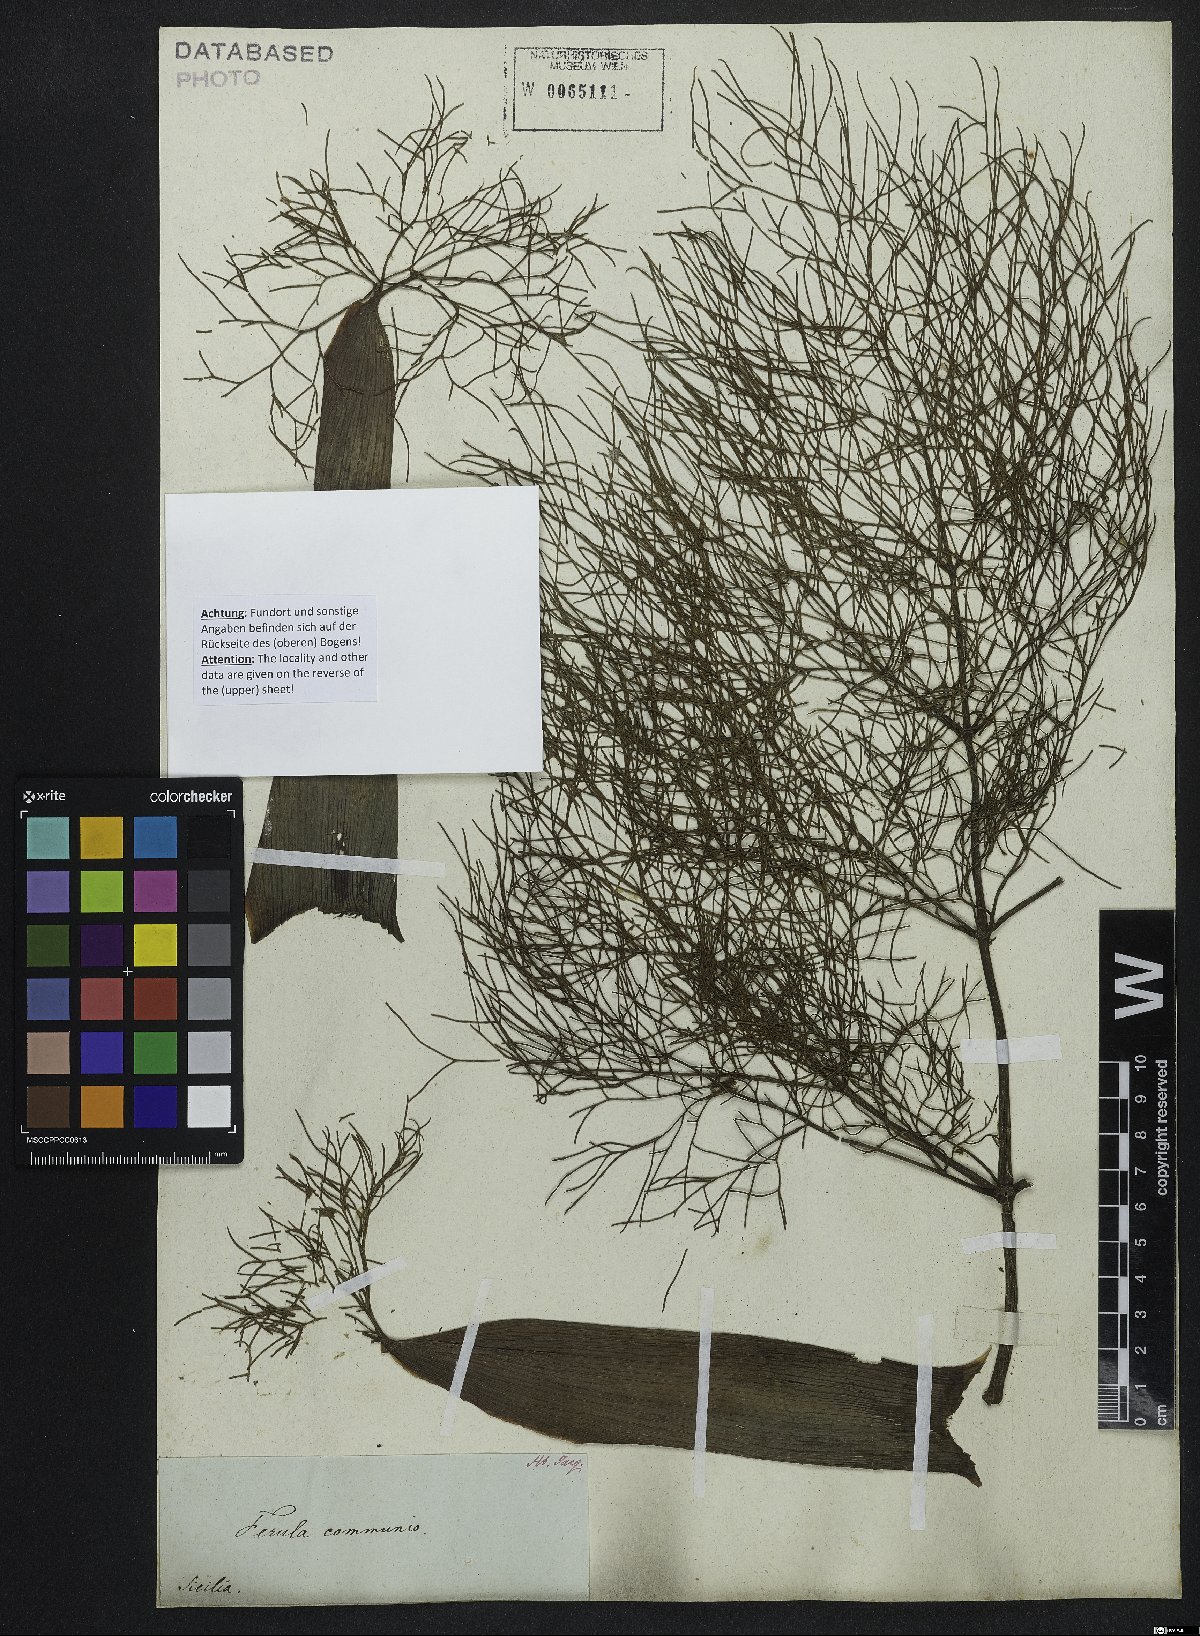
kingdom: Plantae
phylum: Tracheophyta
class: Magnoliopsida
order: Apiales
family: Apiaceae
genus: Ferula
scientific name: Ferula communis
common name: Giant fennel
